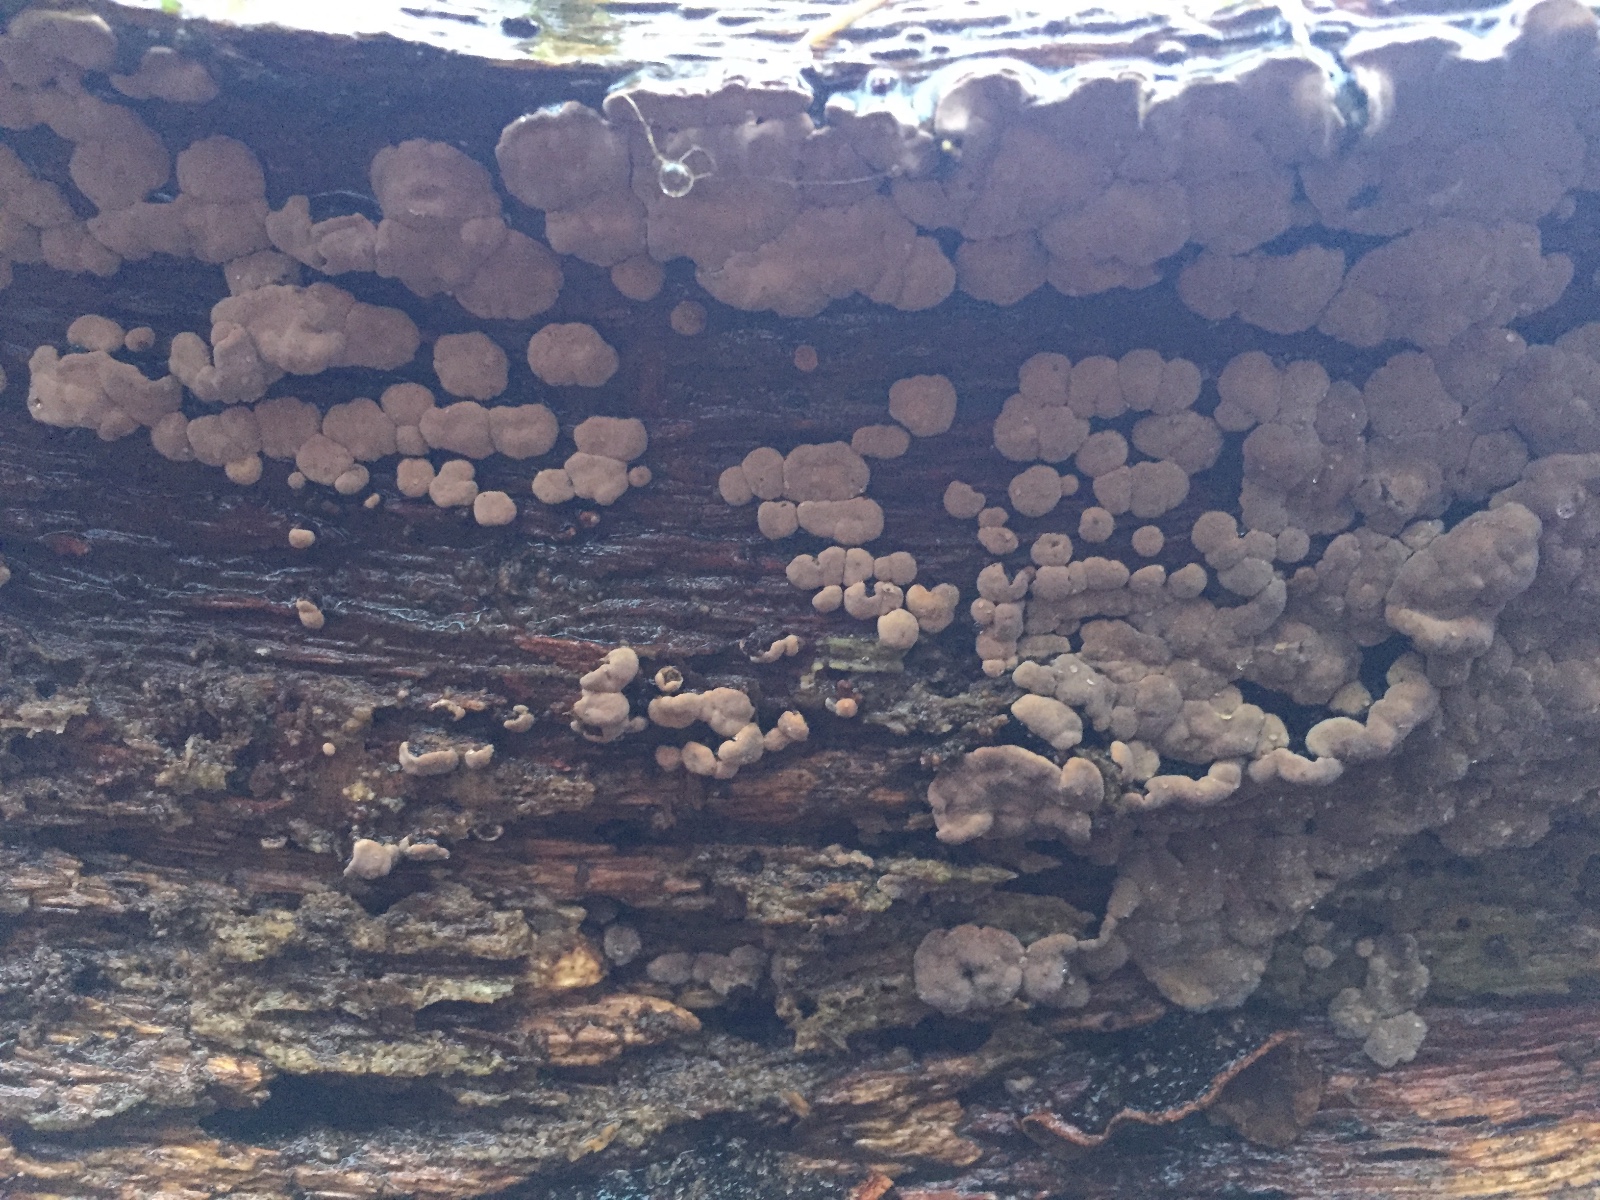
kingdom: Fungi
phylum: Basidiomycota
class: Agaricomycetes
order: Russulales
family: Stereaceae
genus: Xylobolus
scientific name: Xylobolus frustulatus
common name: mønster-lædersvamp
